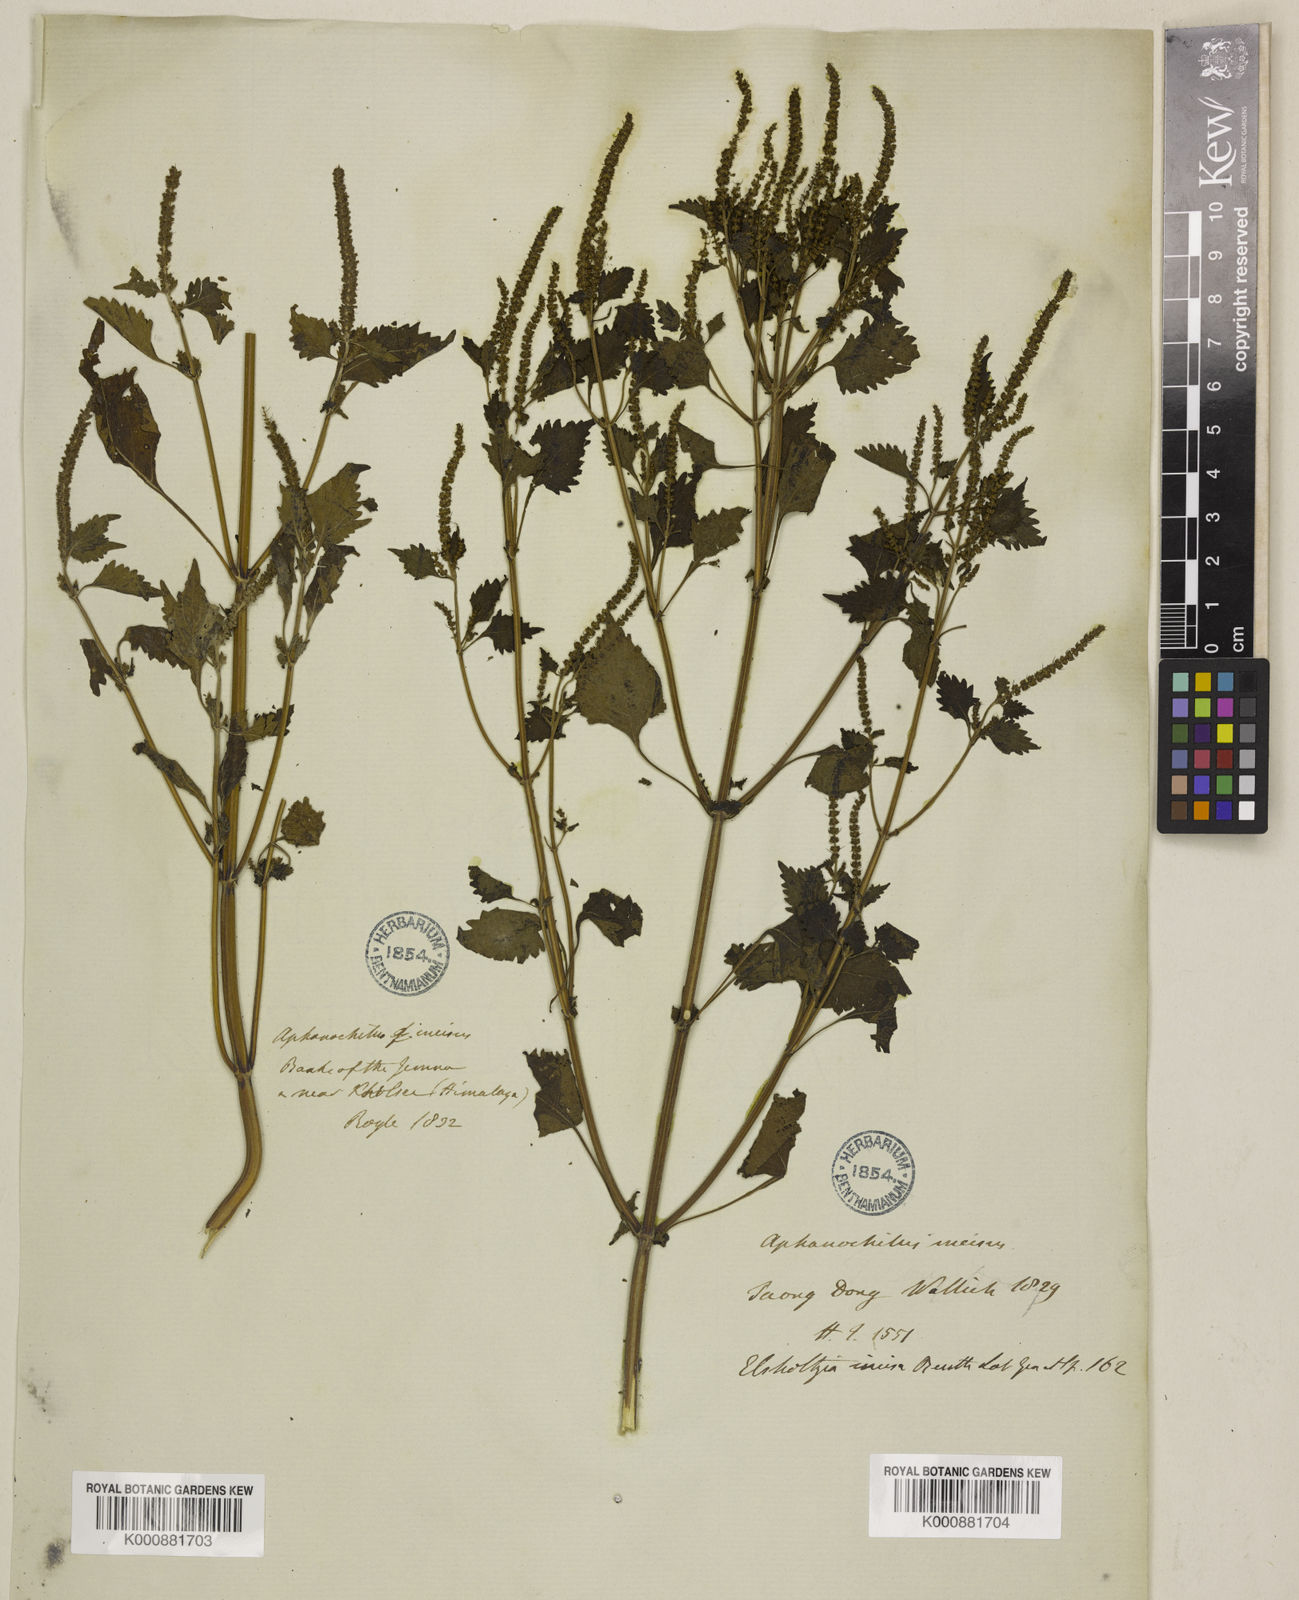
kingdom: Plantae
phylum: Tracheophyta
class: Magnoliopsida
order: Lamiales
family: Lamiaceae
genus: Elsholtzia
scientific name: Elsholtzia stachyodes
